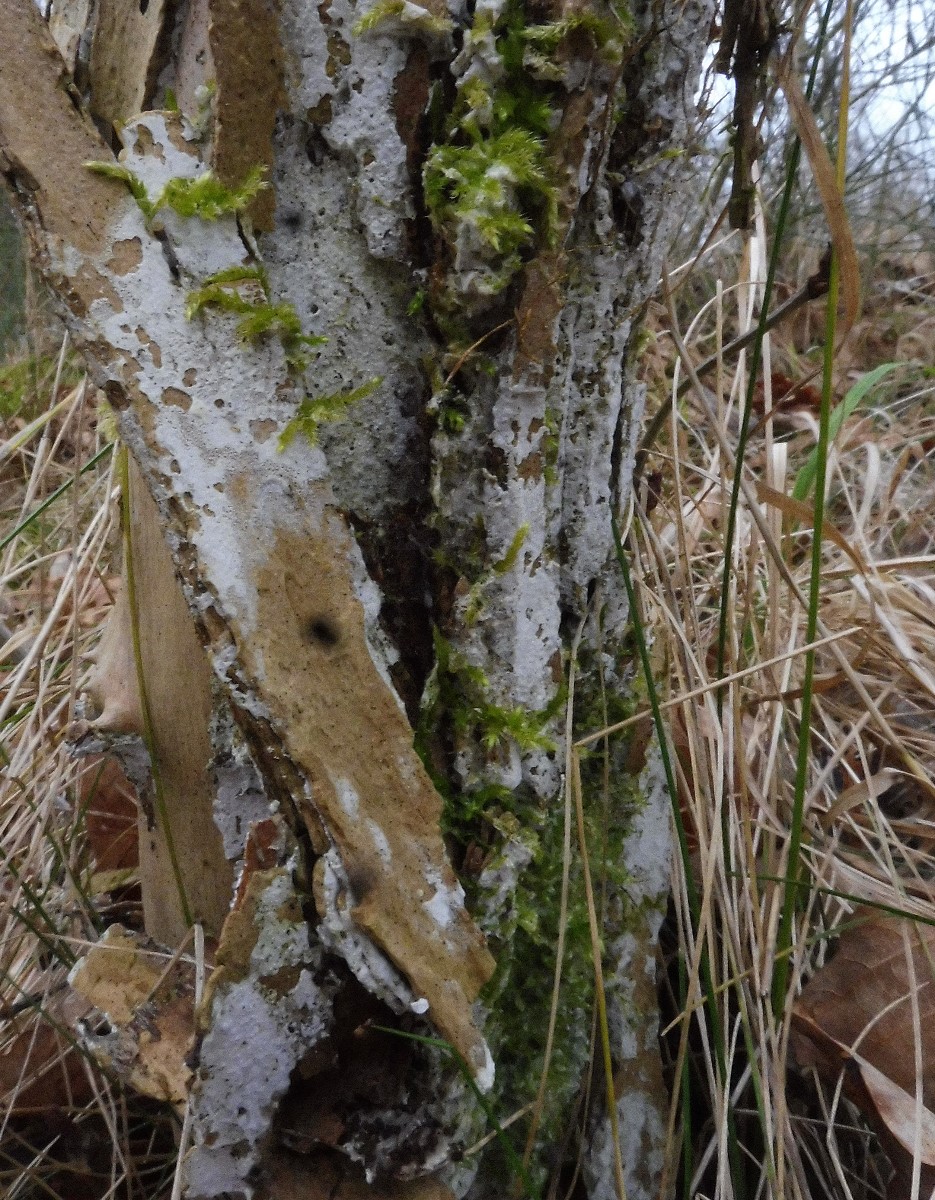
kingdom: Fungi
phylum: Basidiomycota
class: Agaricomycetes
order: Corticiales
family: Corticiaceae
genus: Lyomyces
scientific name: Lyomyces sambuci
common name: almindelig hyldehinde
